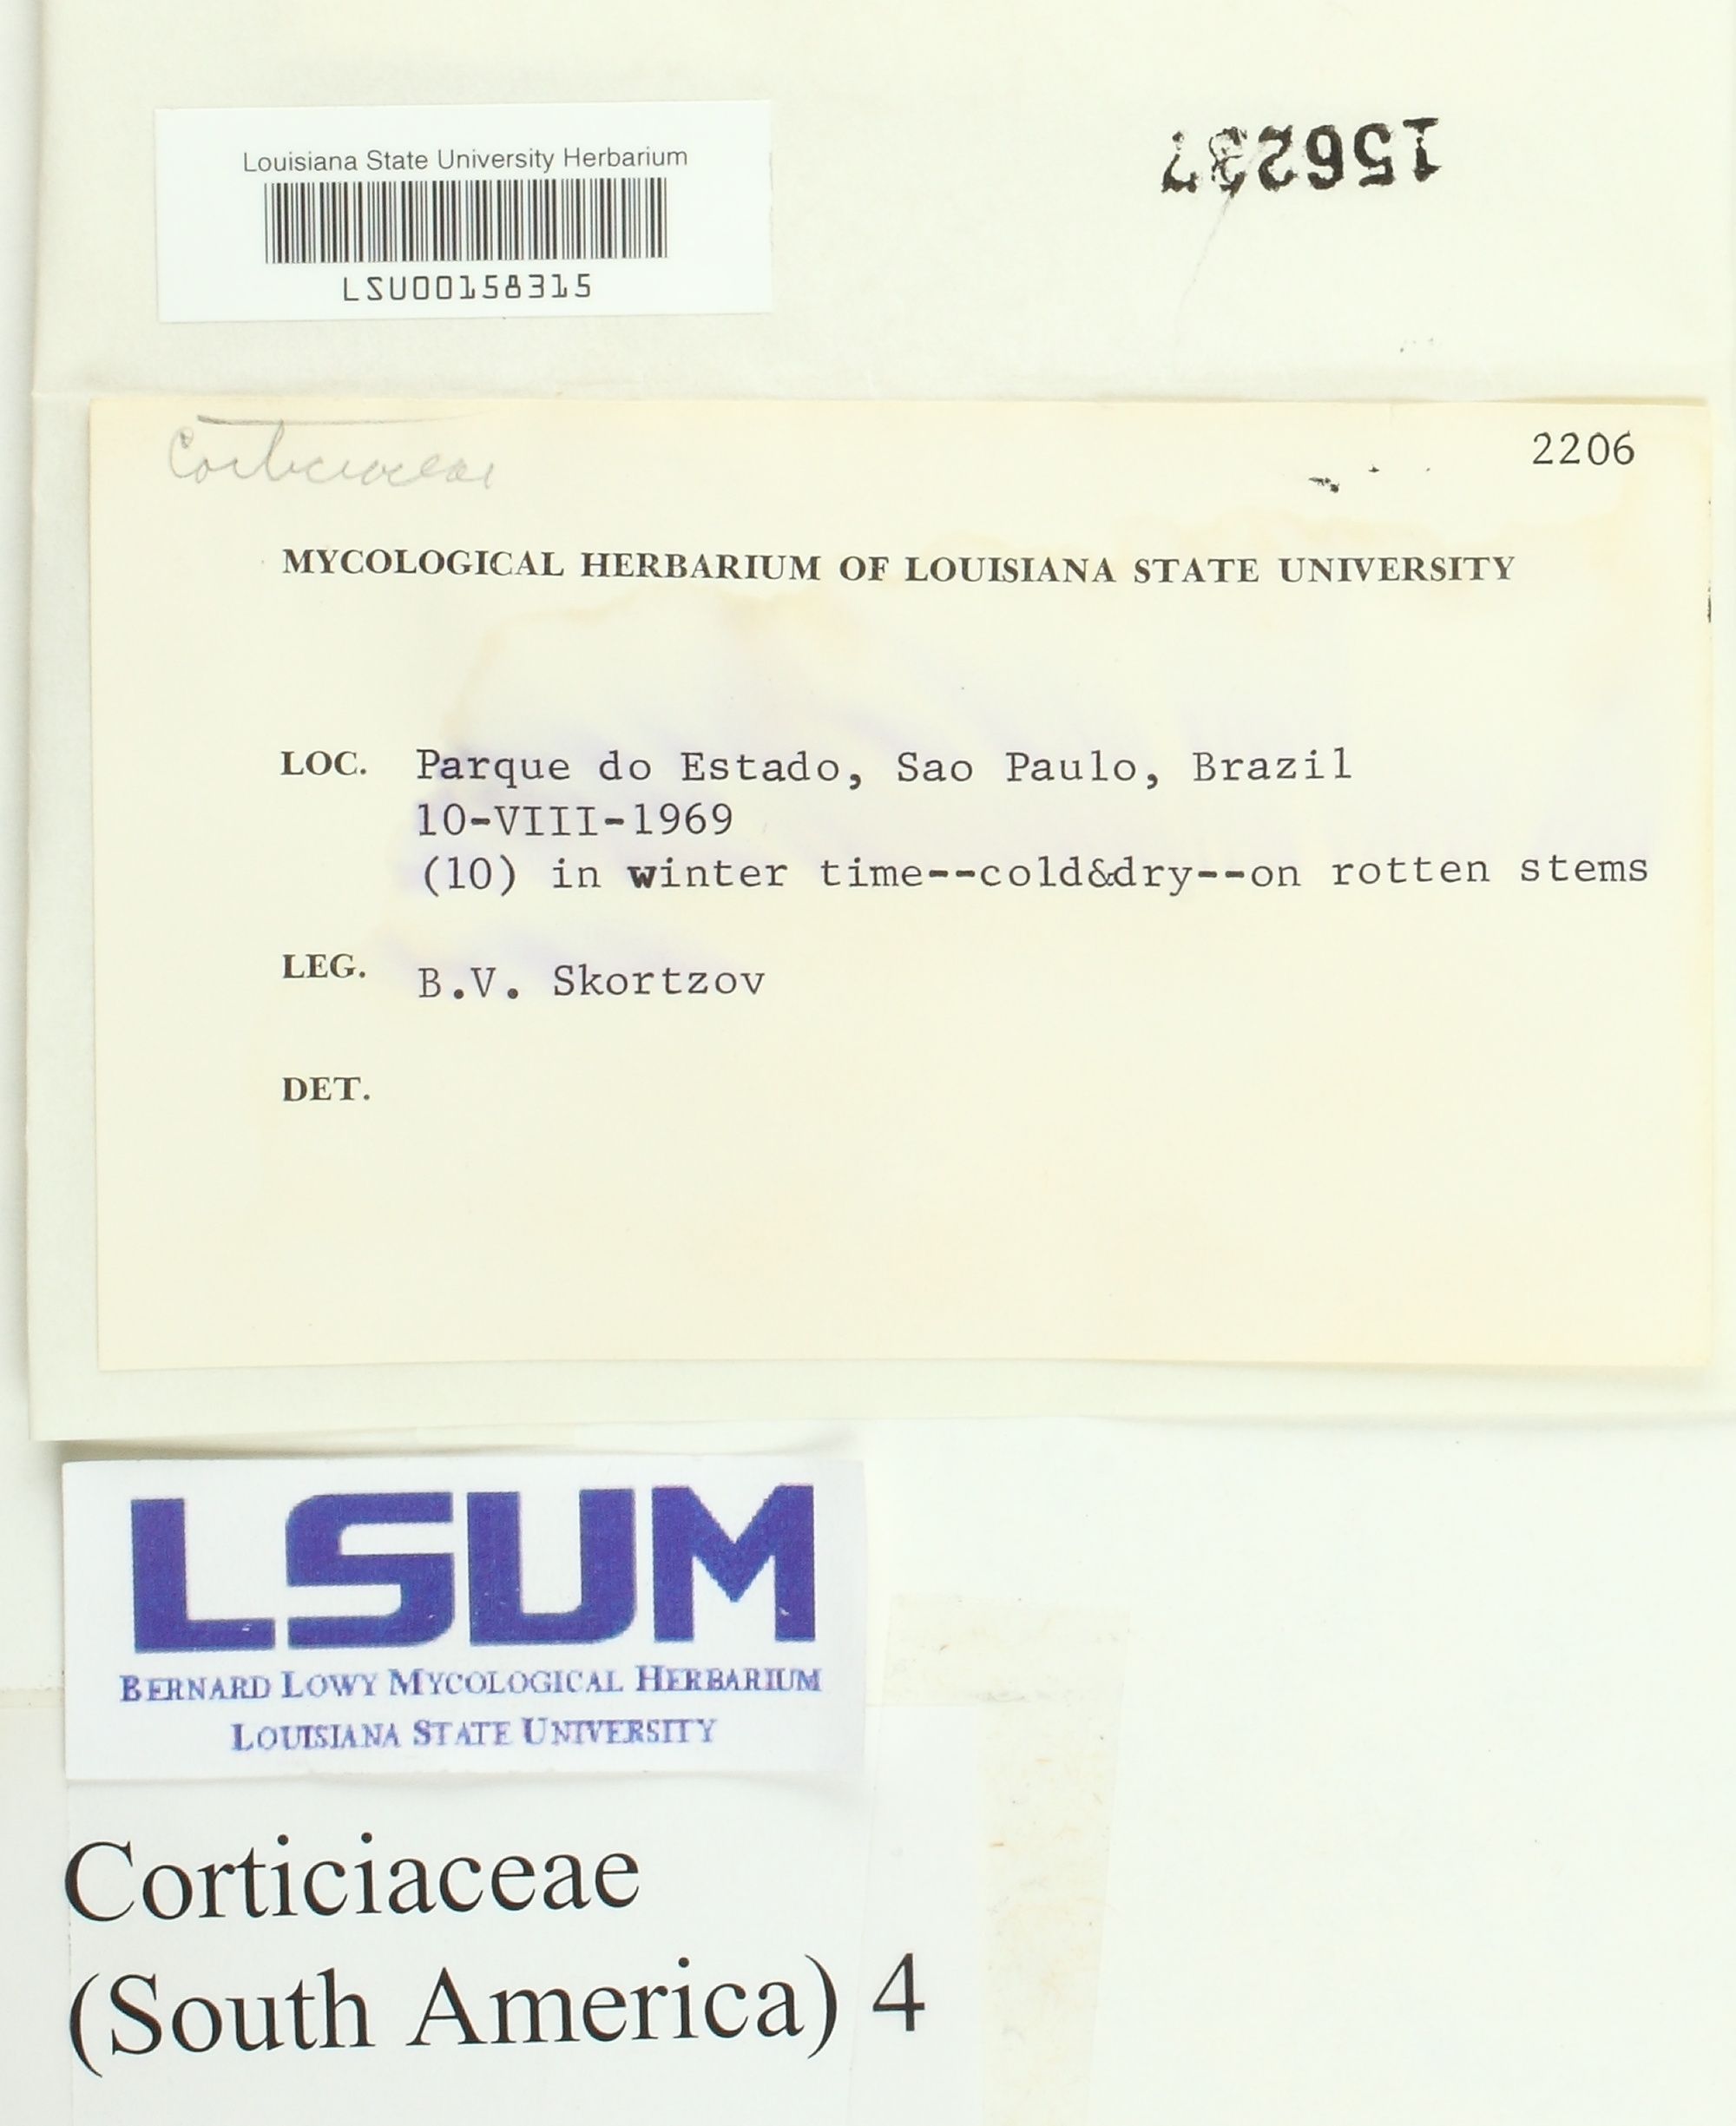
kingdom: Fungi
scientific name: Fungi
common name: Fungi
